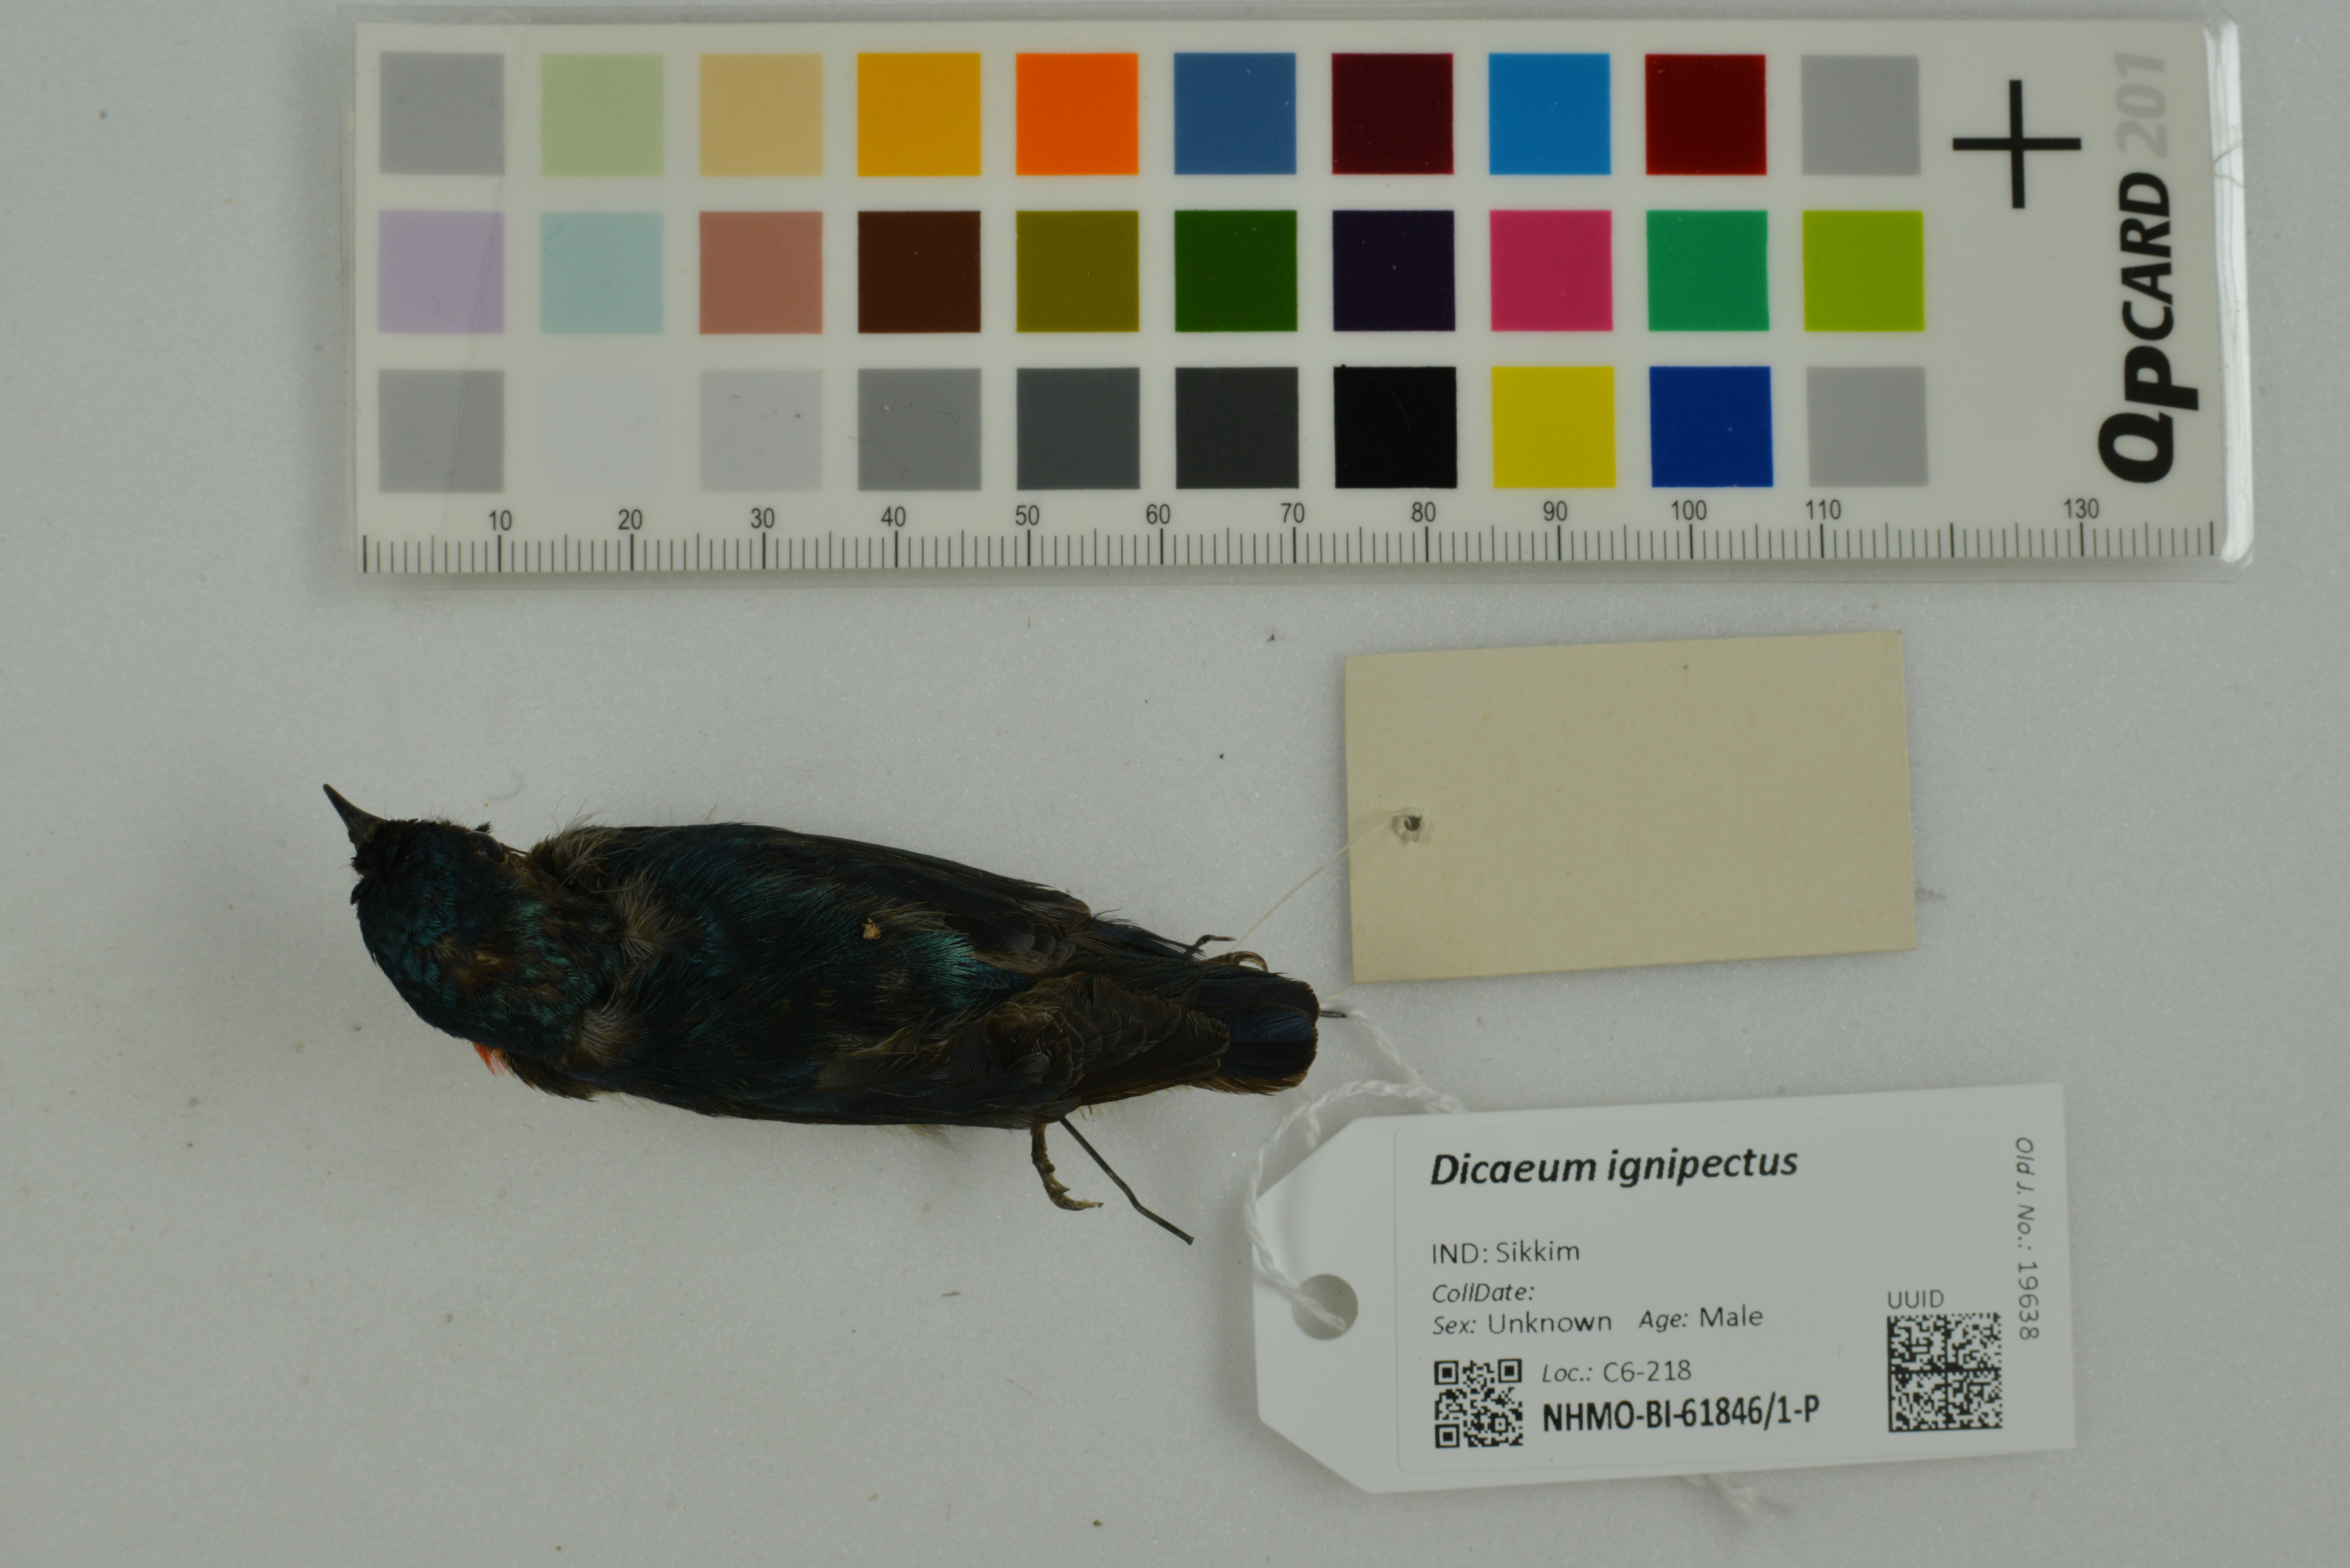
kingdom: Animalia
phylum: Chordata
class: Aves
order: Passeriformes
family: Dicaeidae
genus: Dicaeum
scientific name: Dicaeum ignipectus
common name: Fire-breasted flowerpecker
